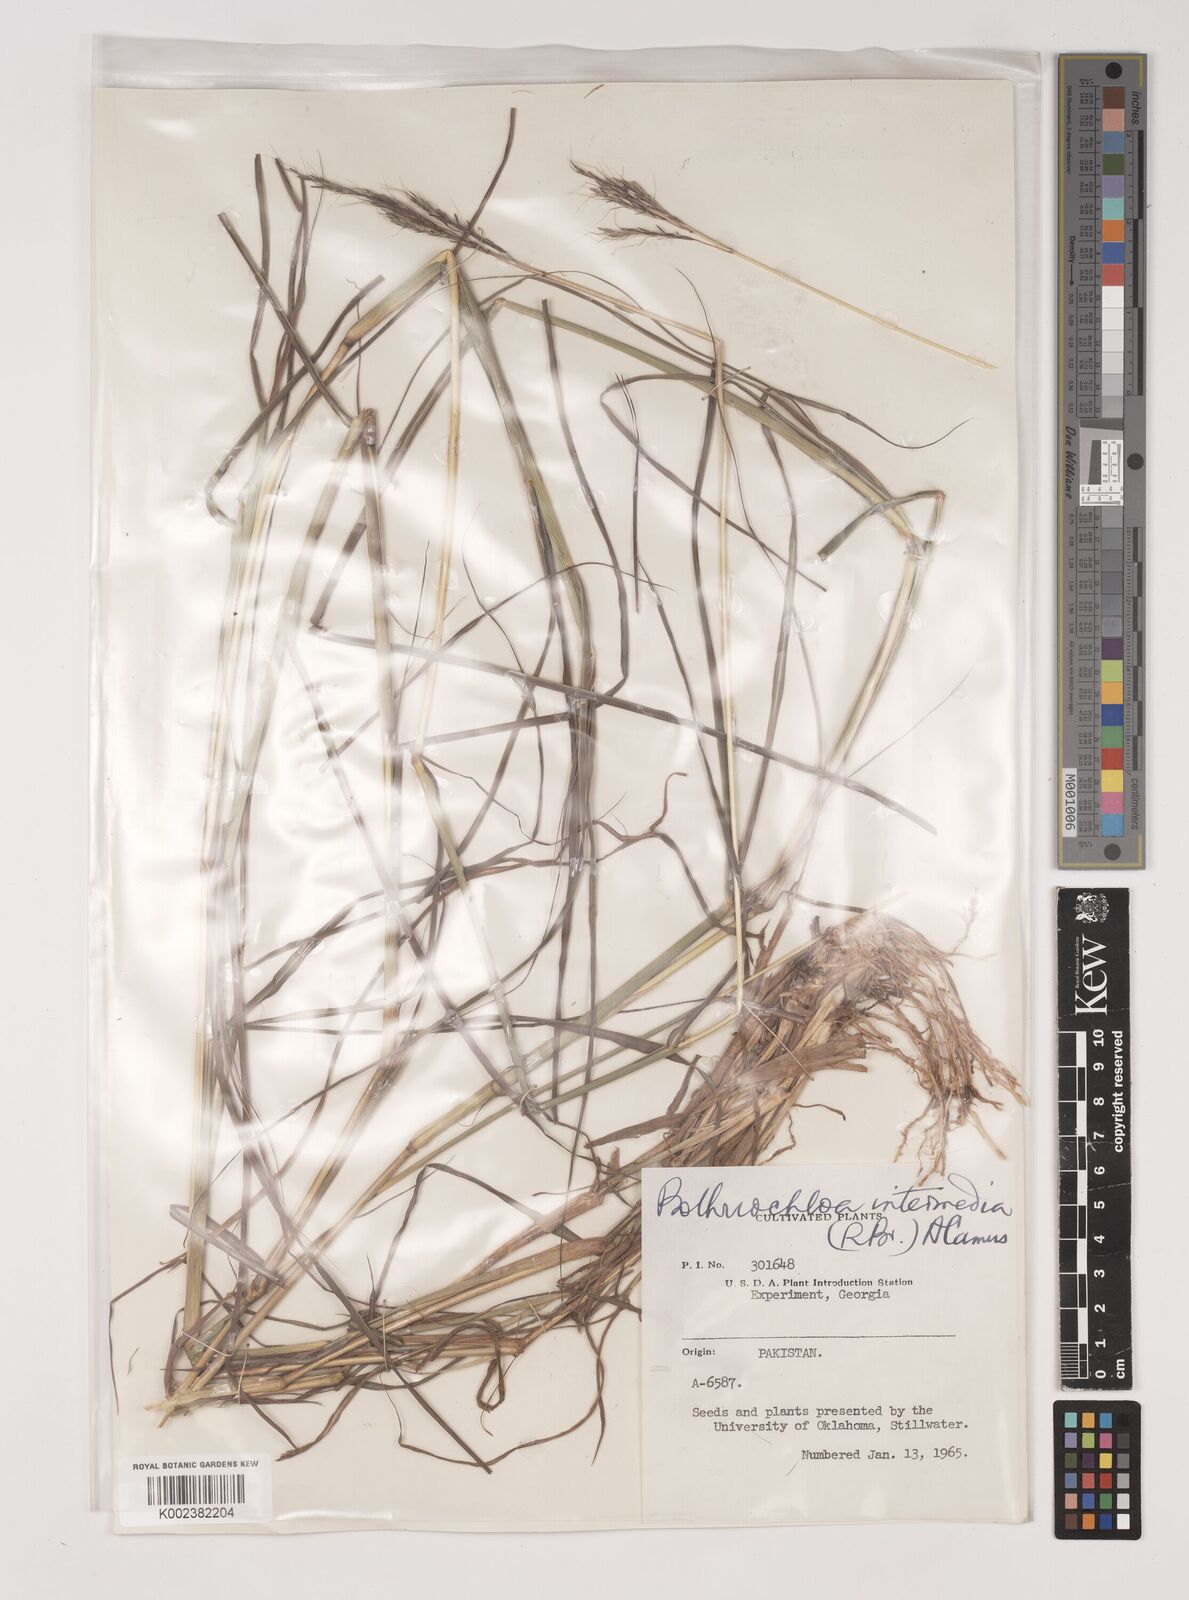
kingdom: Plantae
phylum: Tracheophyta
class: Liliopsida
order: Poales
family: Poaceae
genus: Bothriochloa
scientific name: Bothriochloa bladhii
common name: Caucasian bluestem
